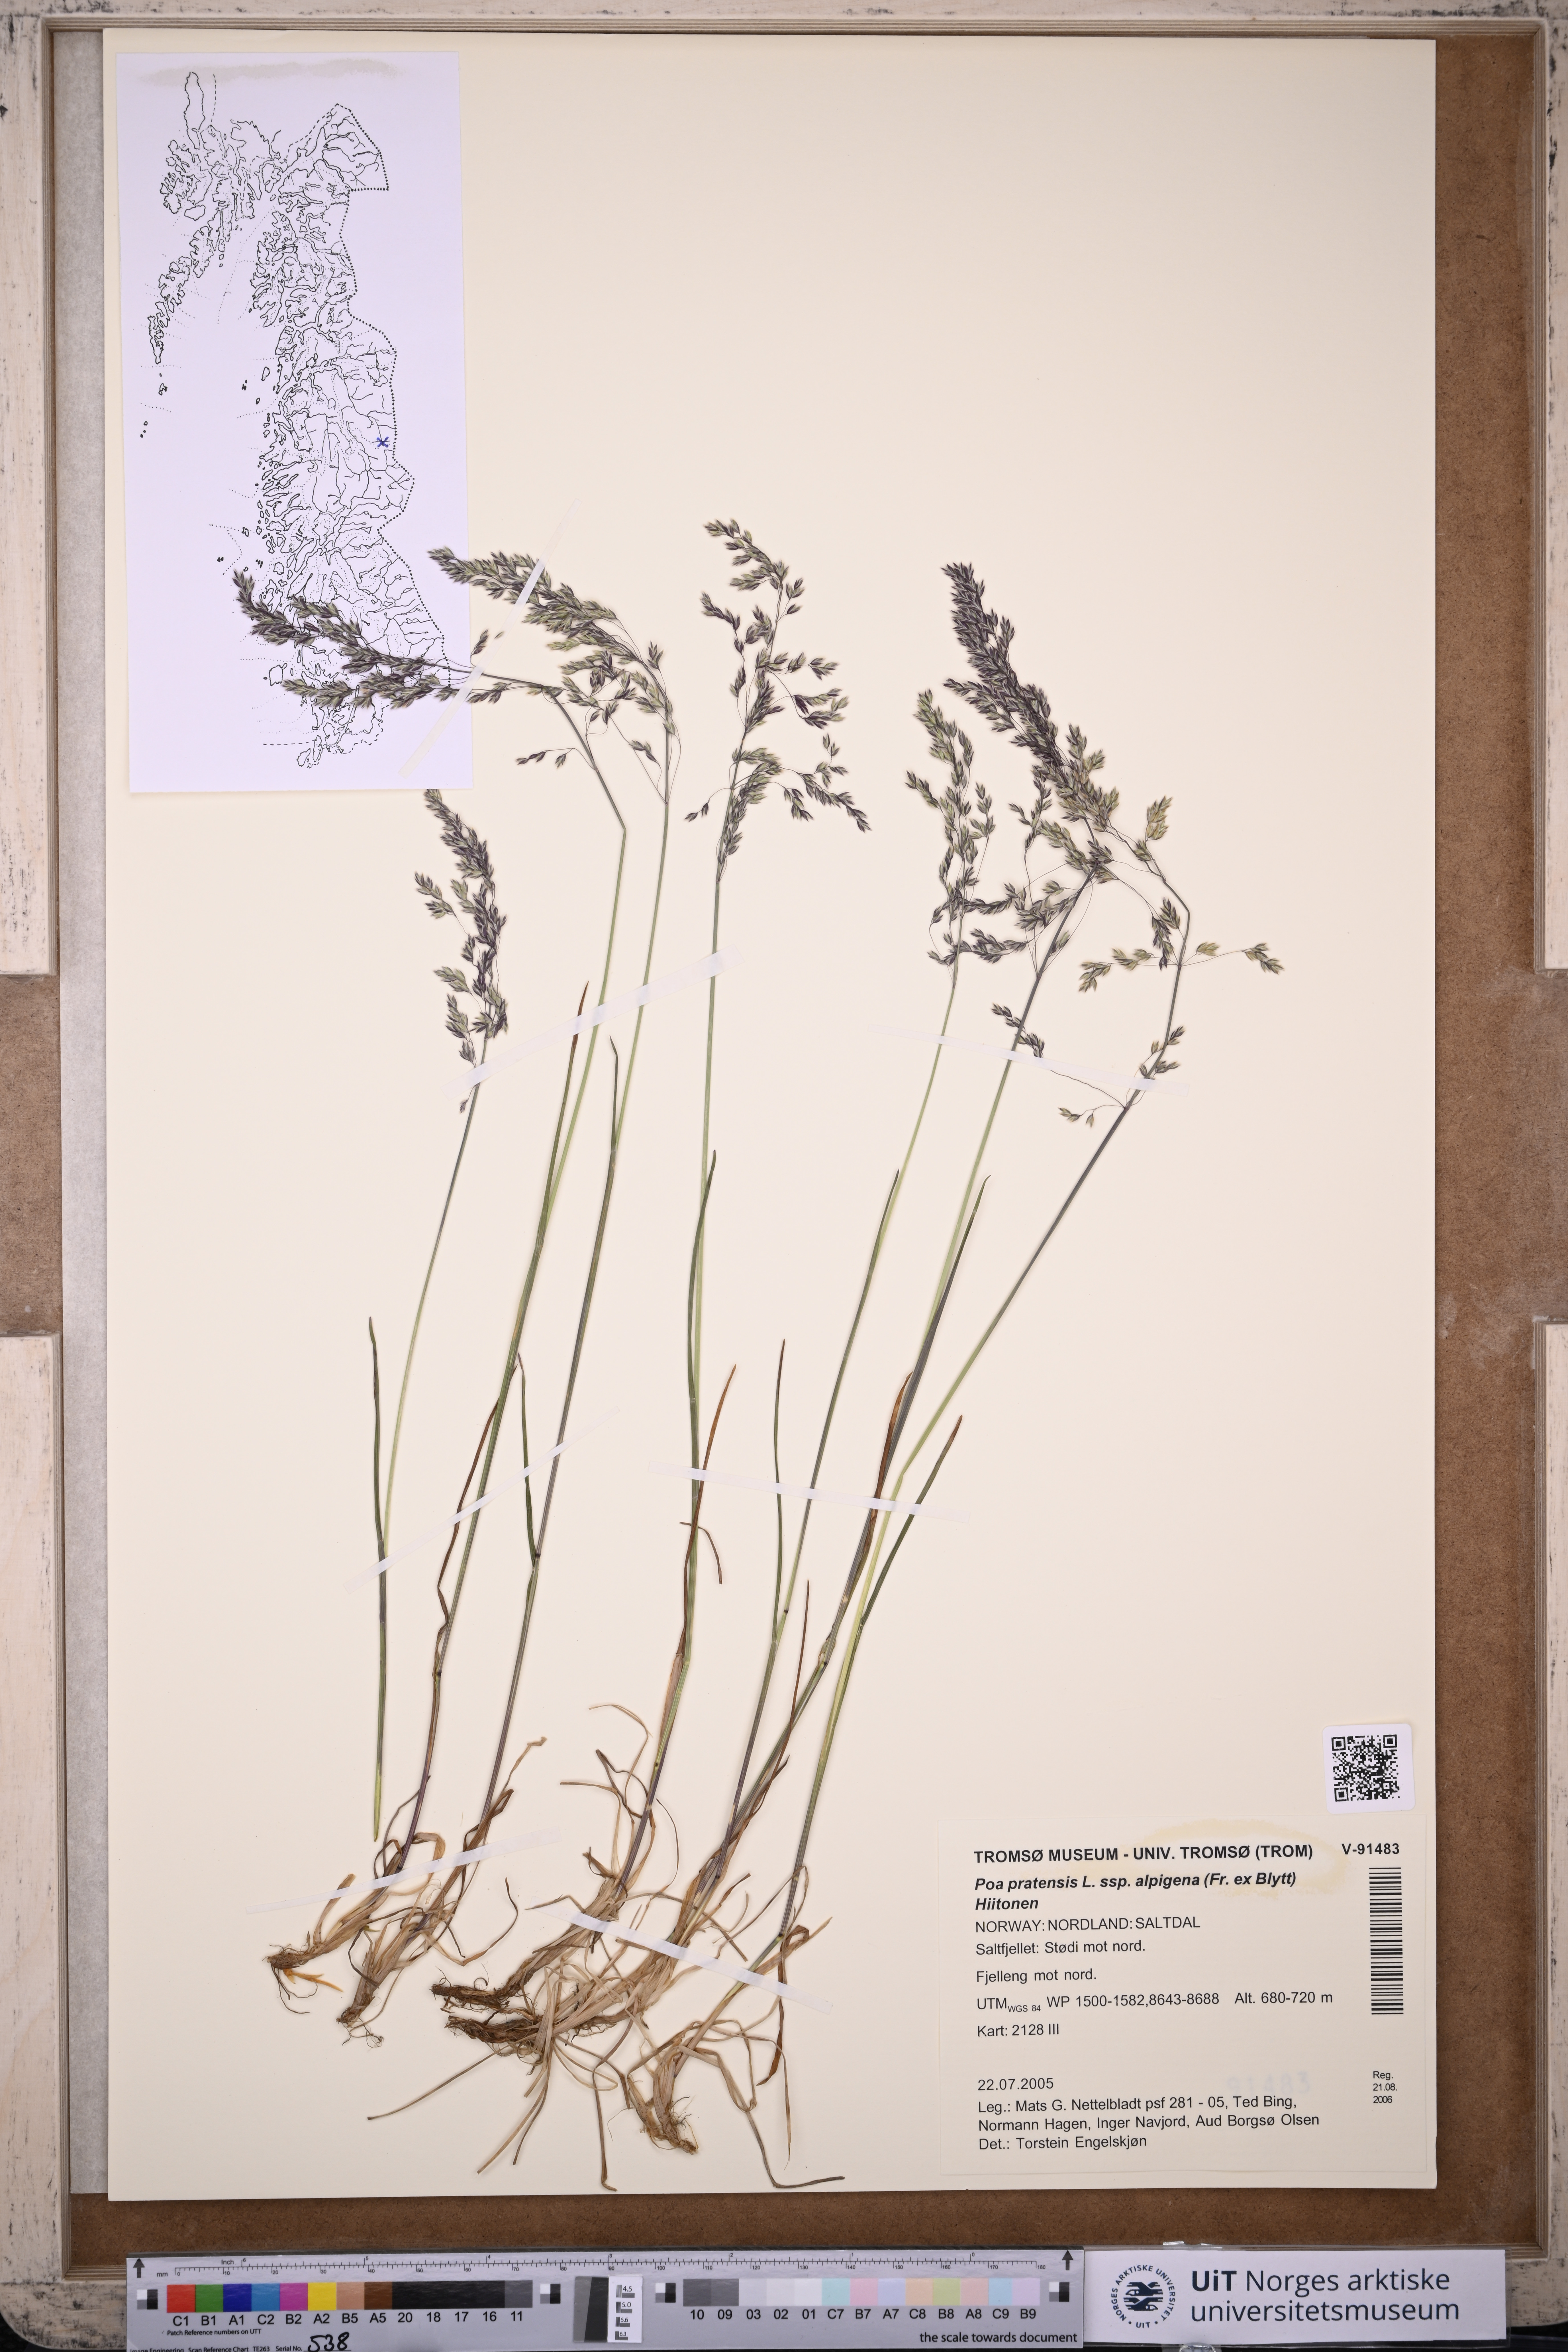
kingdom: Plantae
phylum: Tracheophyta
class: Liliopsida
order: Poales
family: Poaceae
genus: Poa
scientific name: Poa alpigena
